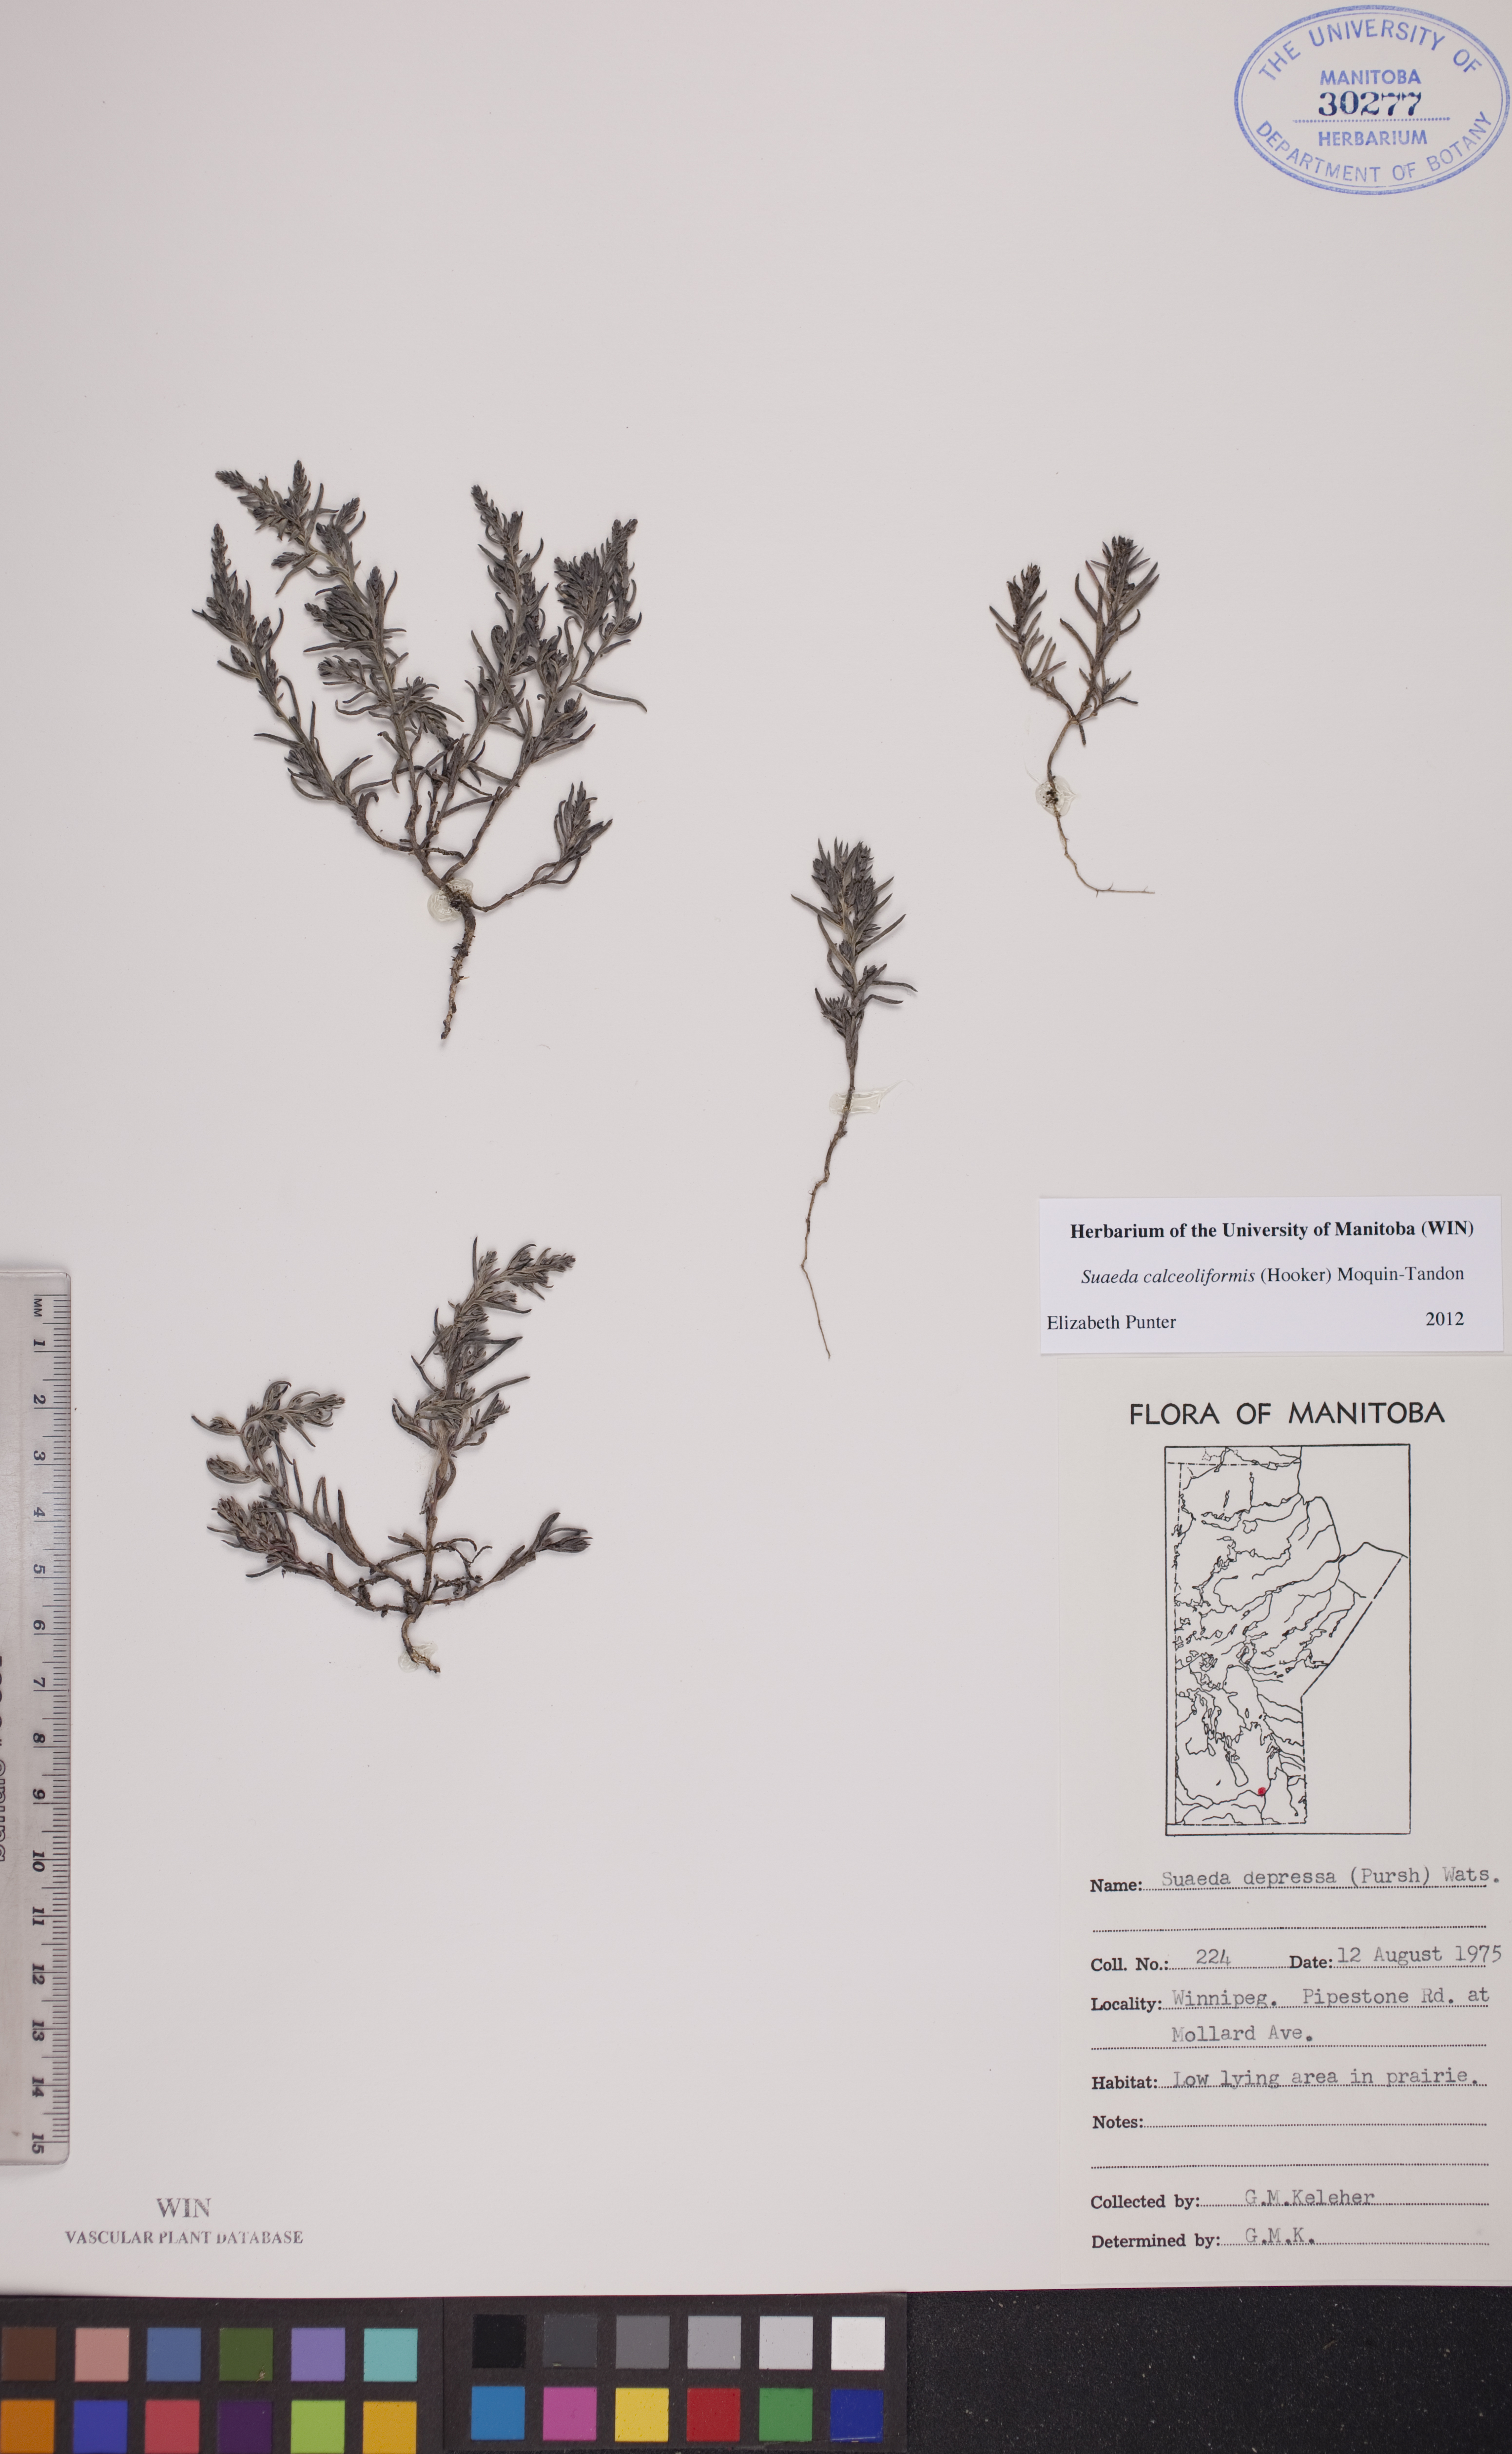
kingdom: Plantae
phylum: Tracheophyta
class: Magnoliopsida
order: Caryophyllales
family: Amaranthaceae
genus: Suaeda
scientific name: Suaeda calceoliformis
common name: Pursh's seepweed
